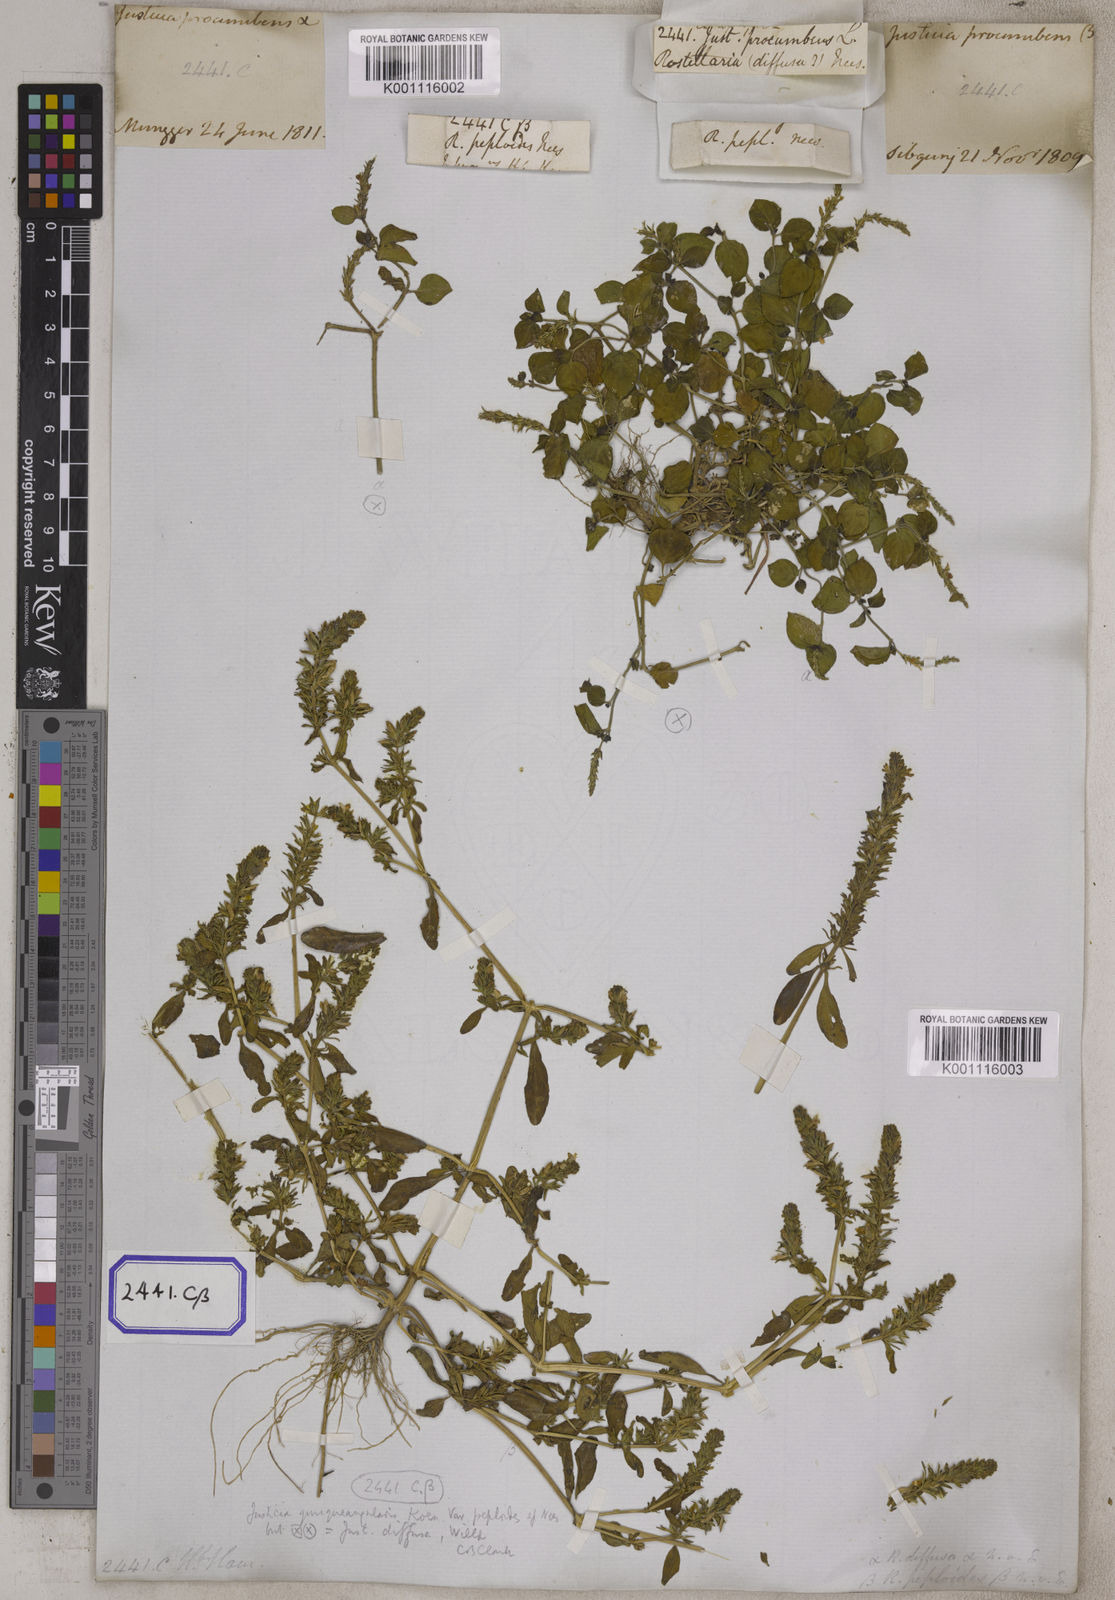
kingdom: Plantae
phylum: Tracheophyta
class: Magnoliopsida
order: Lamiales
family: Acanthaceae
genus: Rostellularia
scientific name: Rostellularia procumbens
